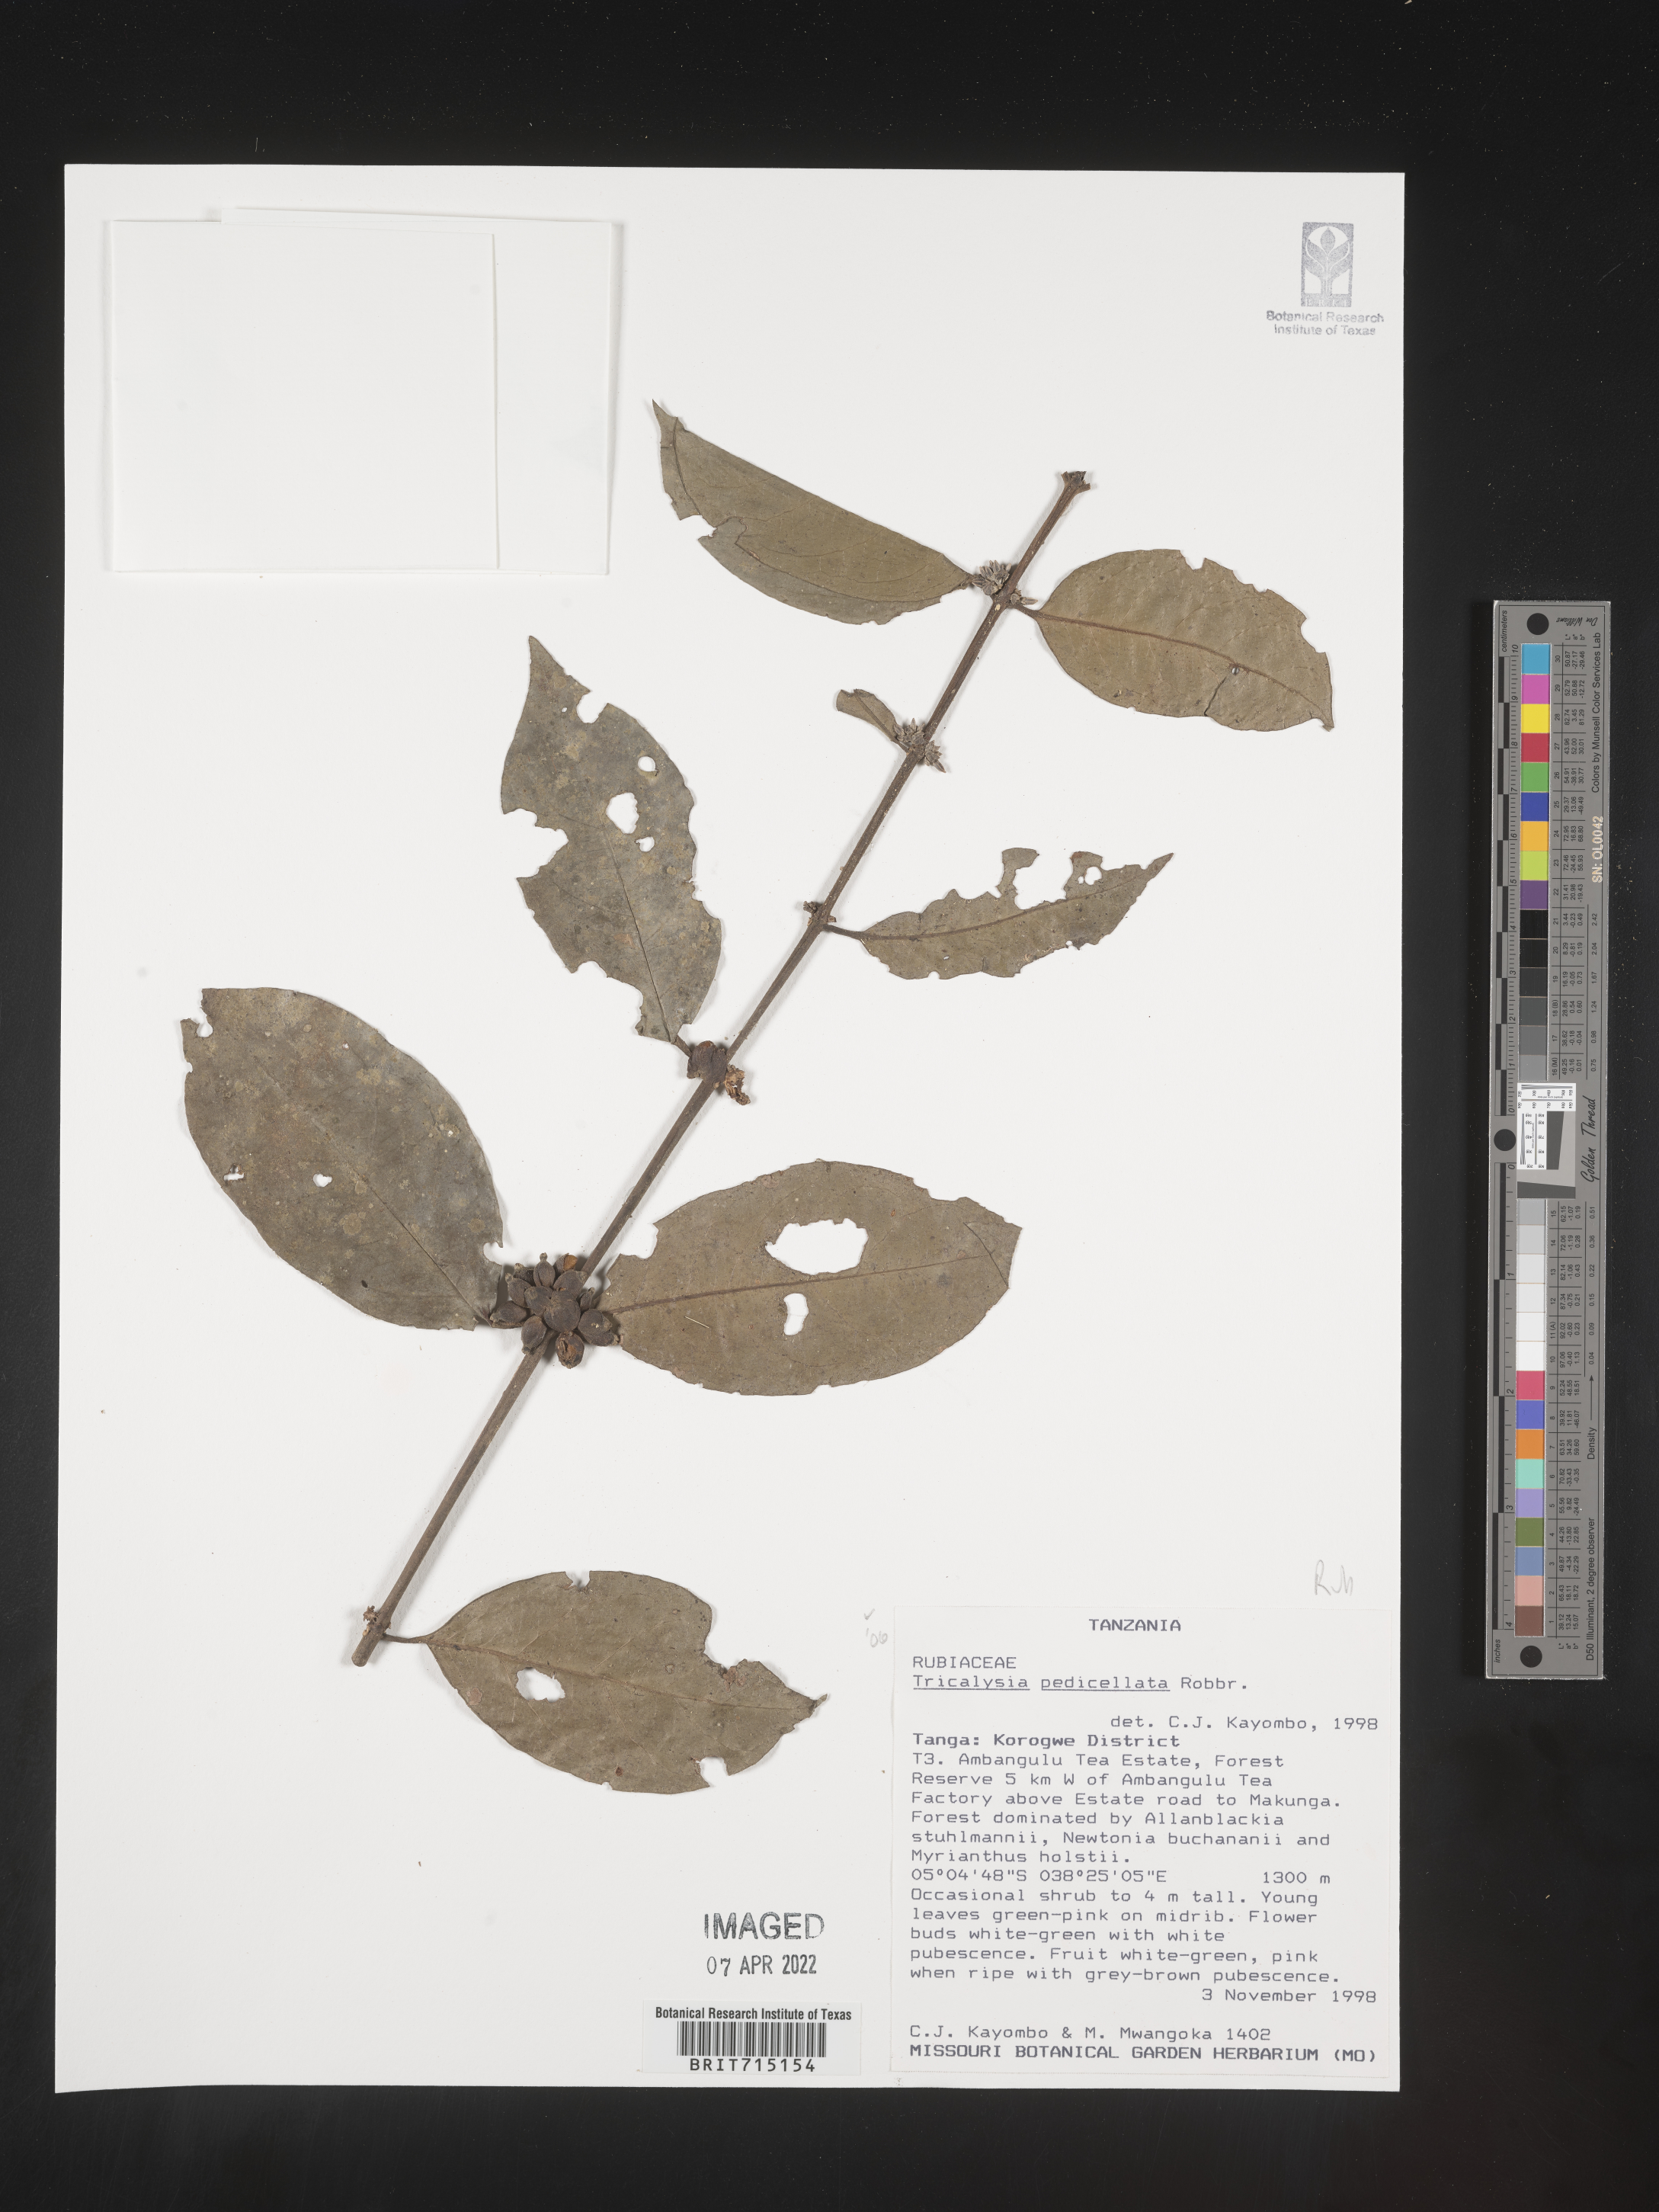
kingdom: Plantae
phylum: Tracheophyta
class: Magnoliopsida
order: Gentianales
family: Rubiaceae
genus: Tricalysia
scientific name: Tricalysia
